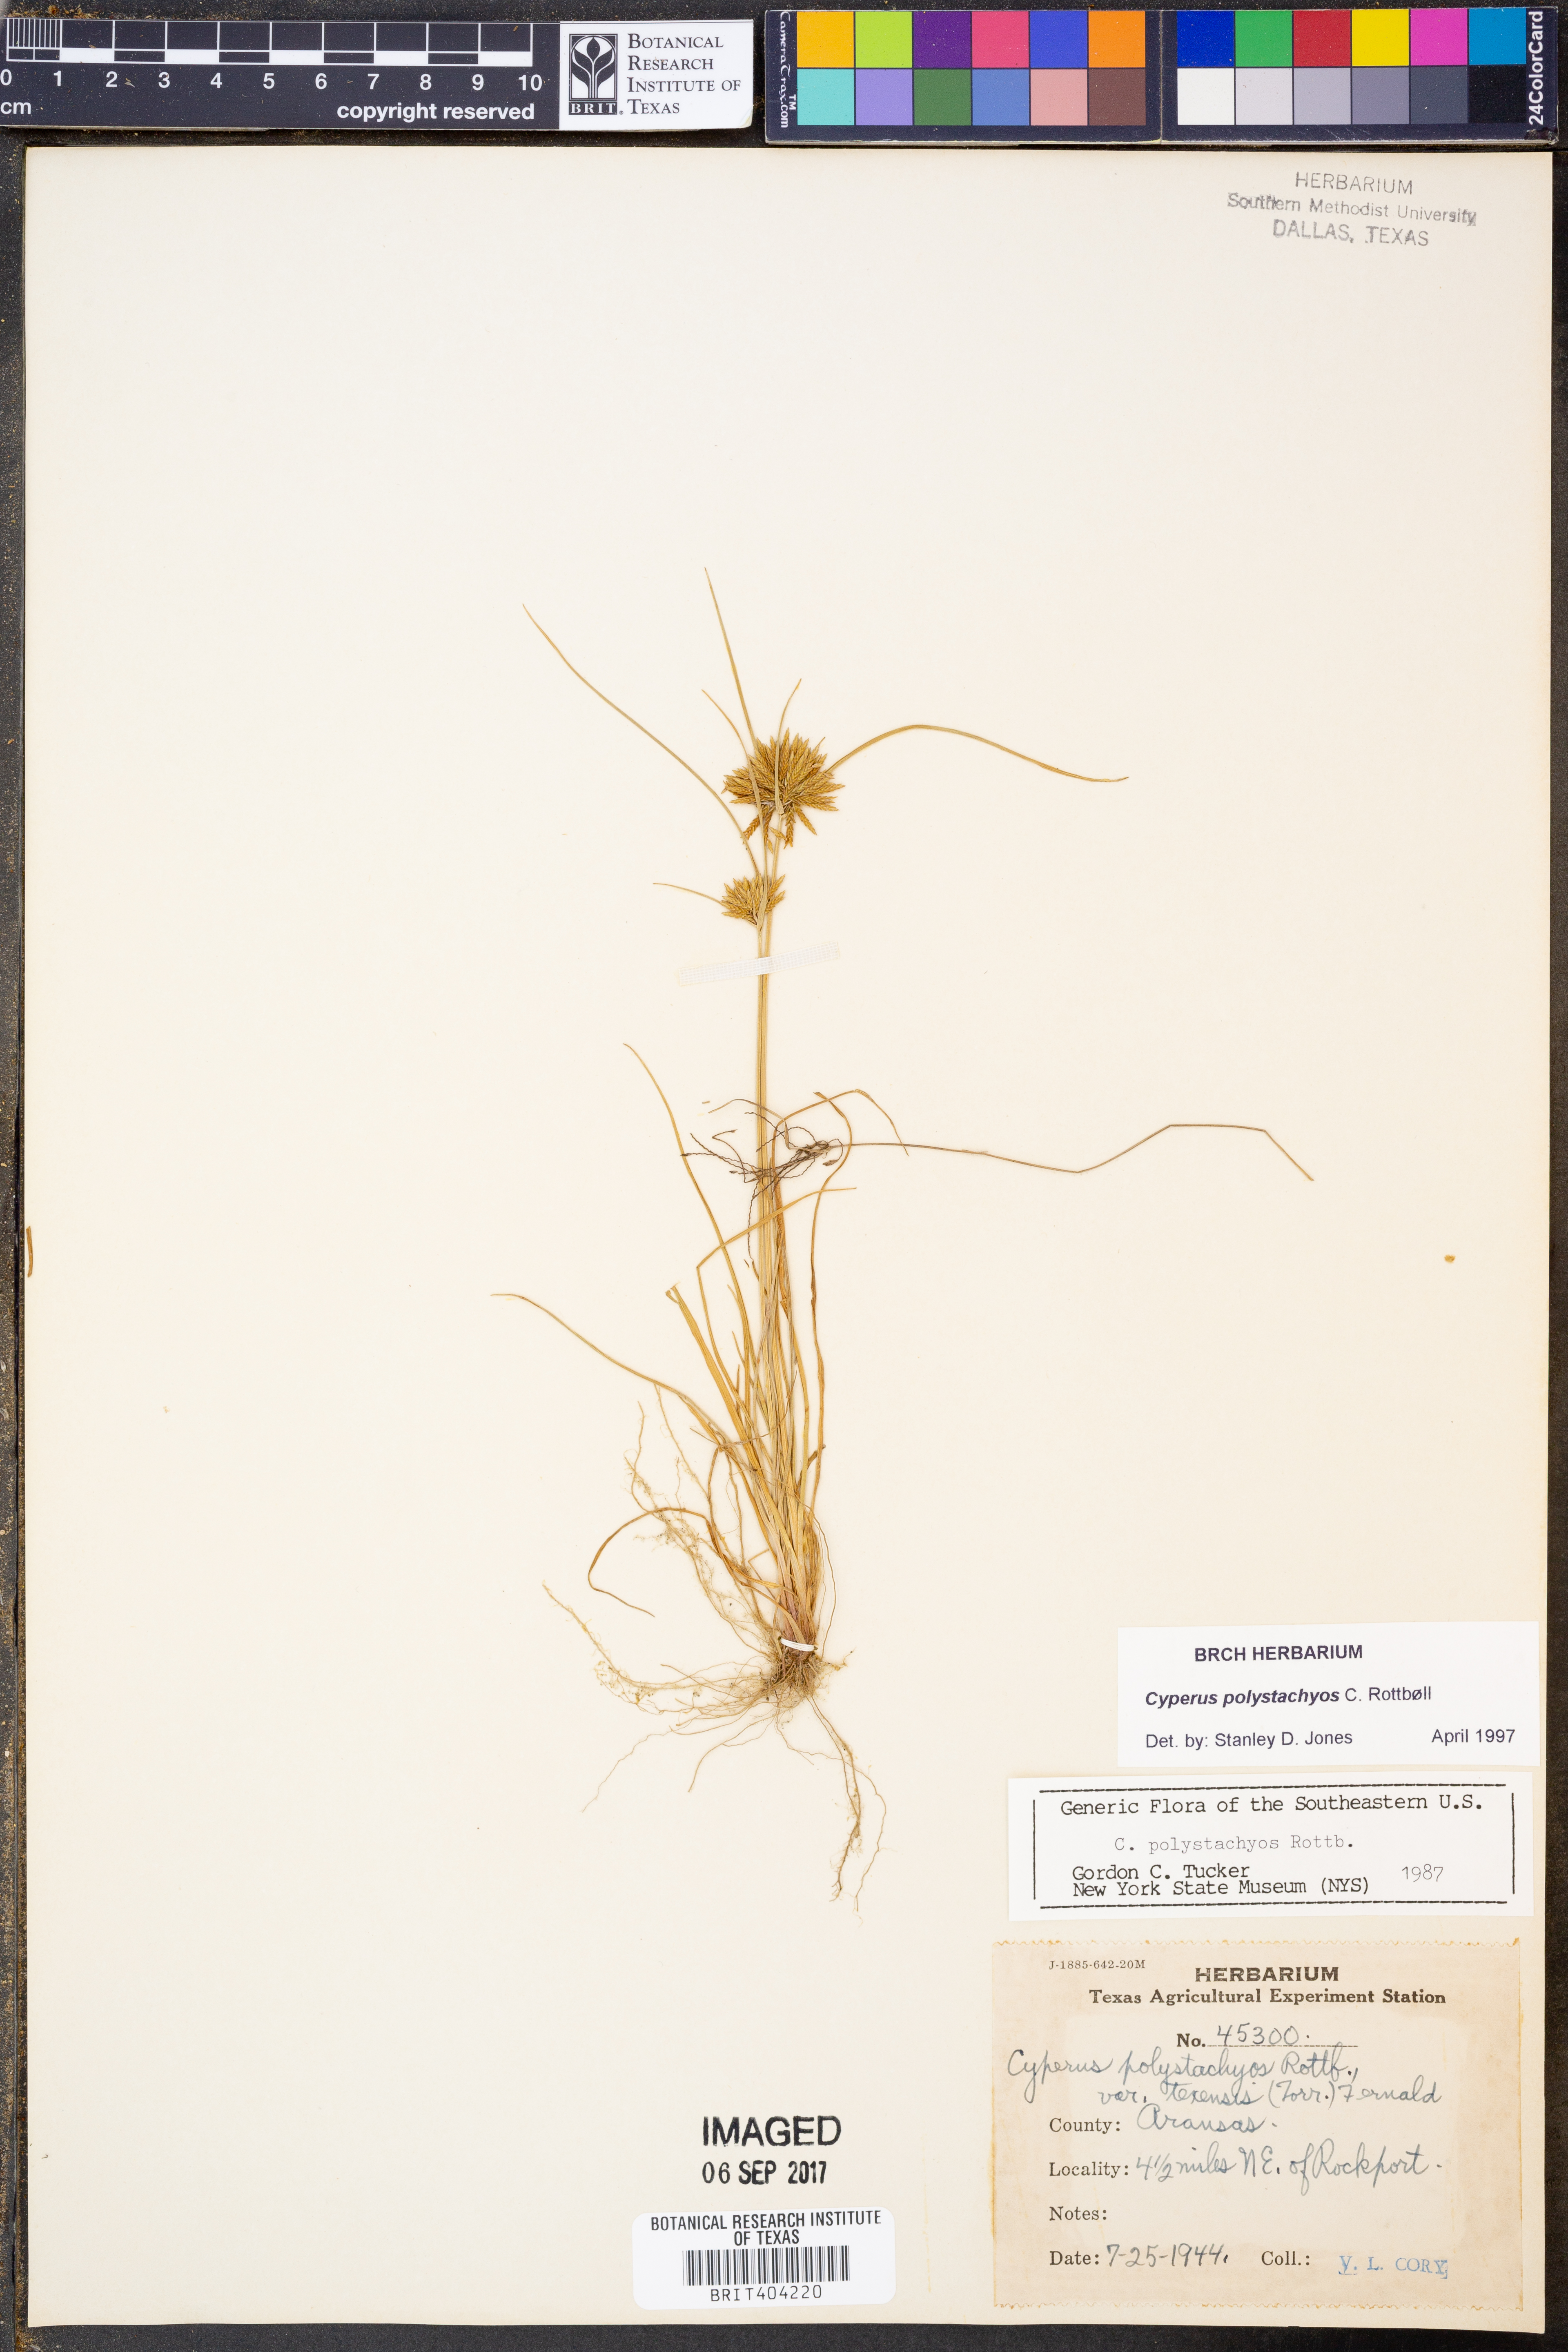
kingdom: Plantae
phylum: Tracheophyta
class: Liliopsida
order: Poales
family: Cyperaceae
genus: Cyperus
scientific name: Cyperus polystachyos
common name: Bunchy flat sedge
